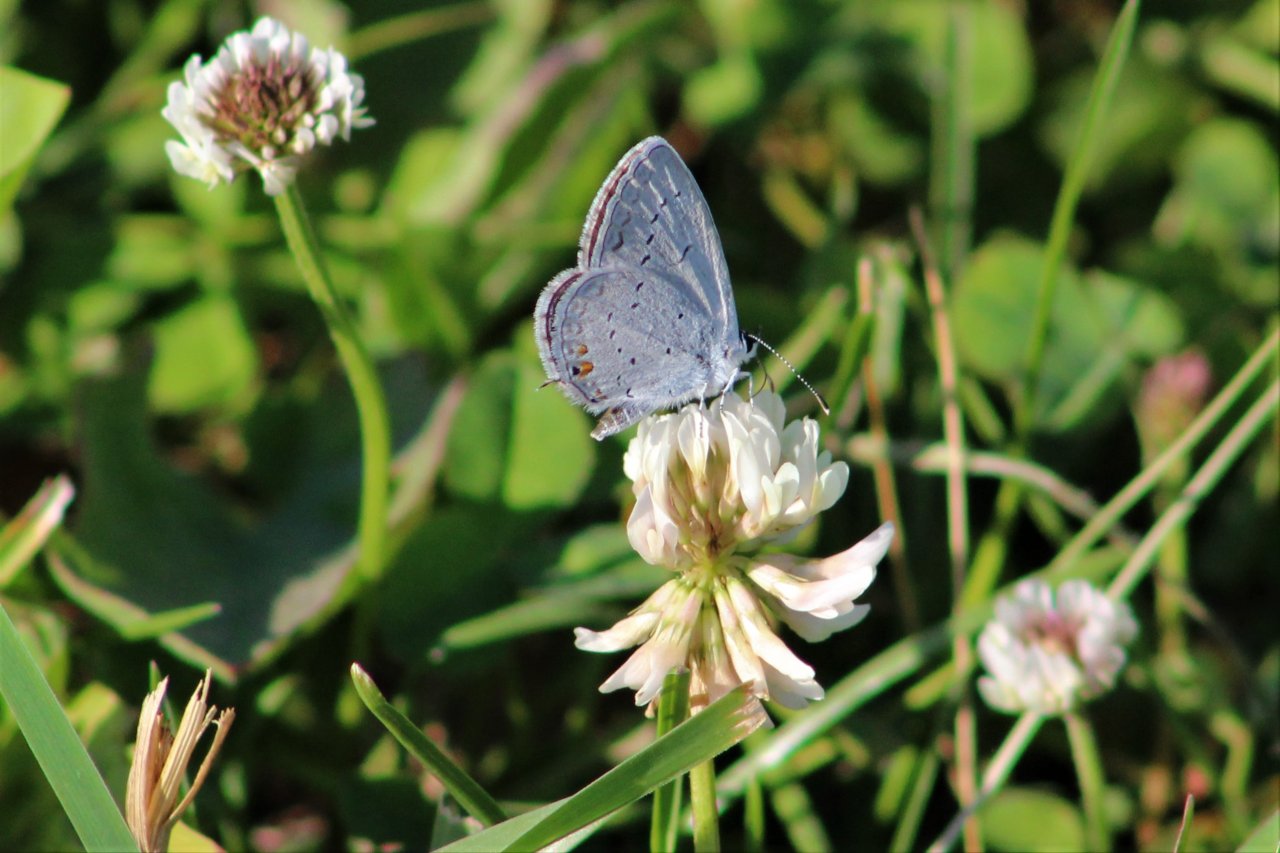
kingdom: Animalia
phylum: Arthropoda
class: Insecta
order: Lepidoptera
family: Lycaenidae
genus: Elkalyce
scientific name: Elkalyce comyntas
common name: Eastern Tailed-Blue
